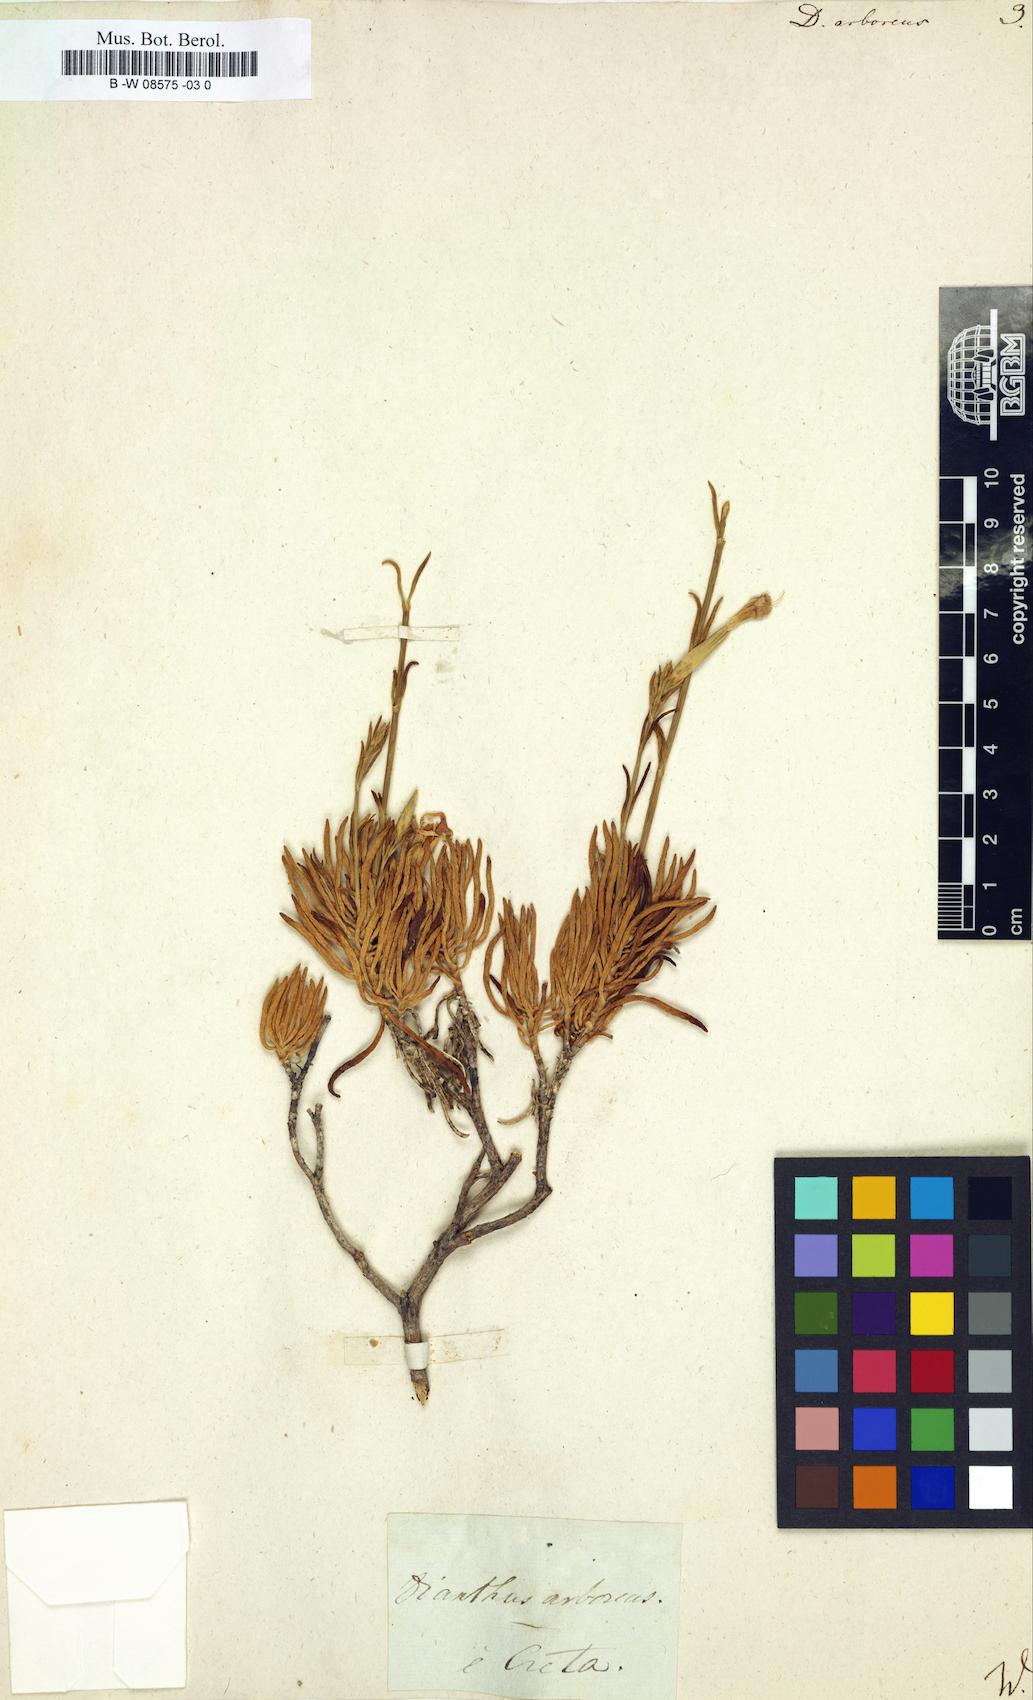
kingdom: Plantae
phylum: Tracheophyta
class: Magnoliopsida
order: Caryophyllales
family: Caryophyllaceae
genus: Dianthus
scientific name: Dianthus juniperinus
